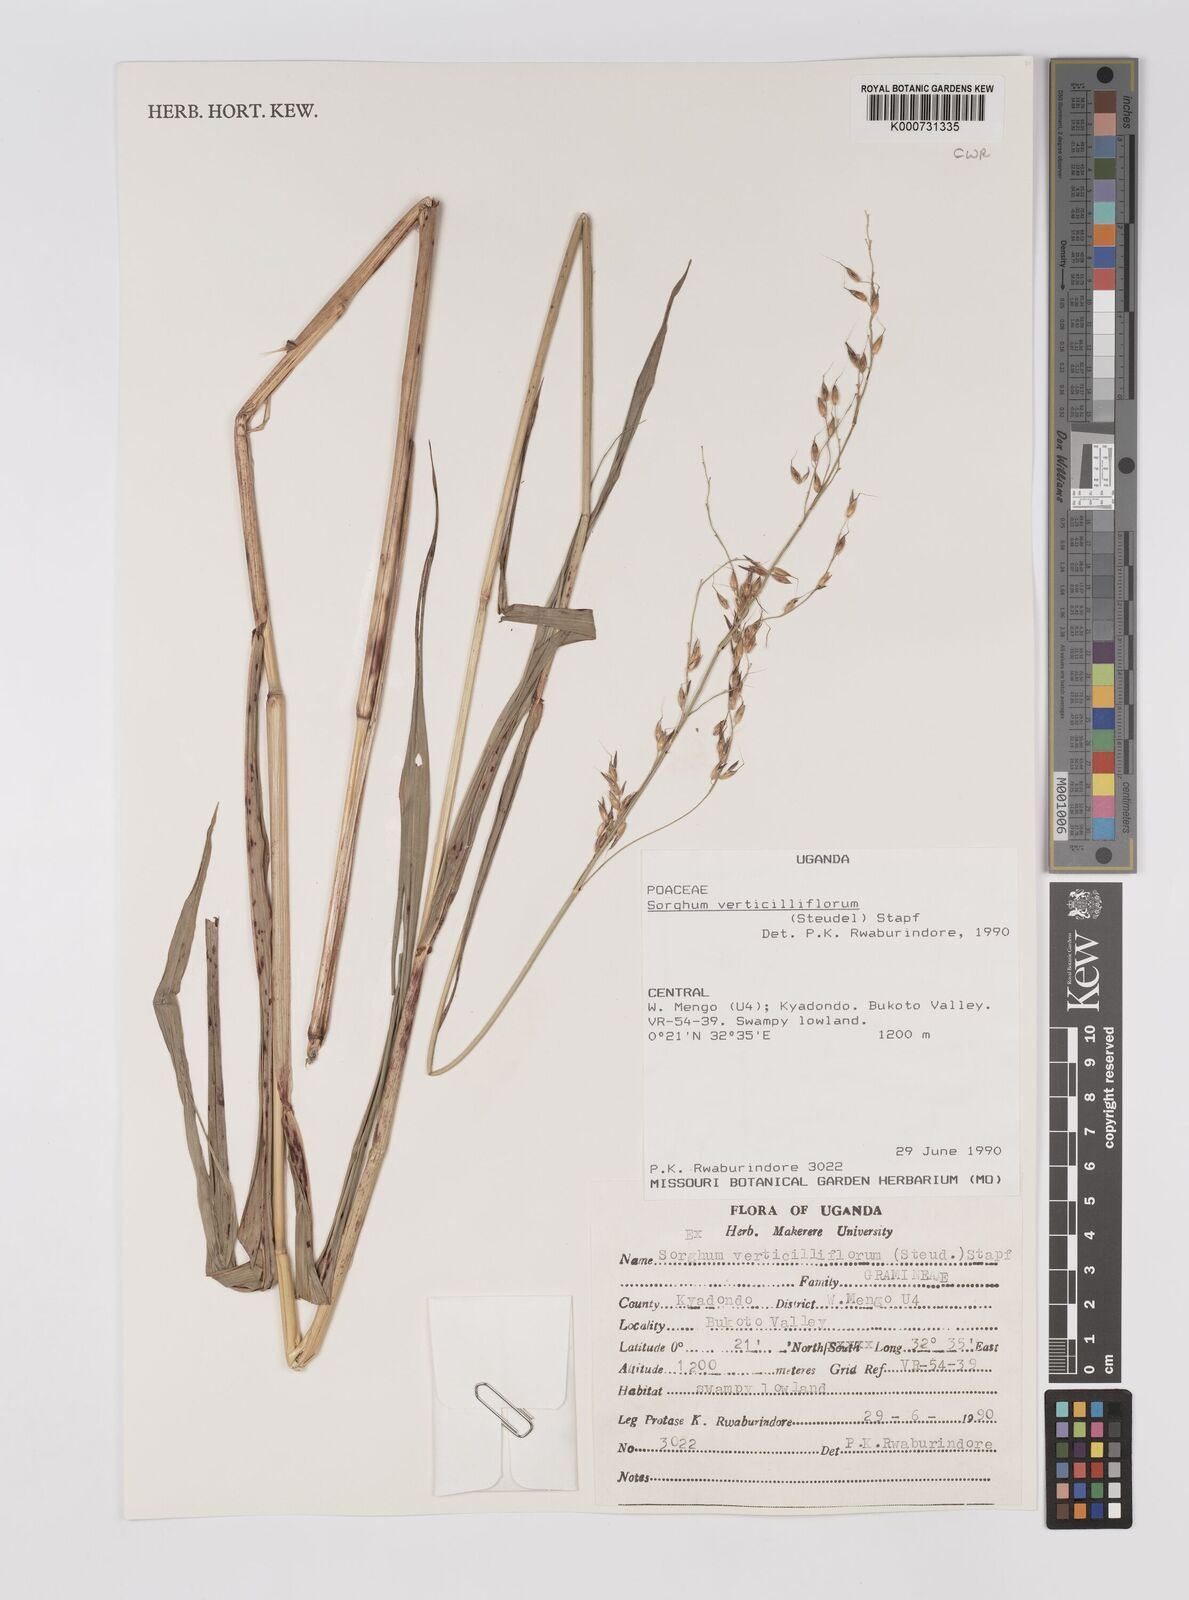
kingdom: Plantae
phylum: Tracheophyta
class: Liliopsida
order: Poales
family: Poaceae
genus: Sorghum
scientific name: Sorghum arundinaceum
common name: Sorghum
